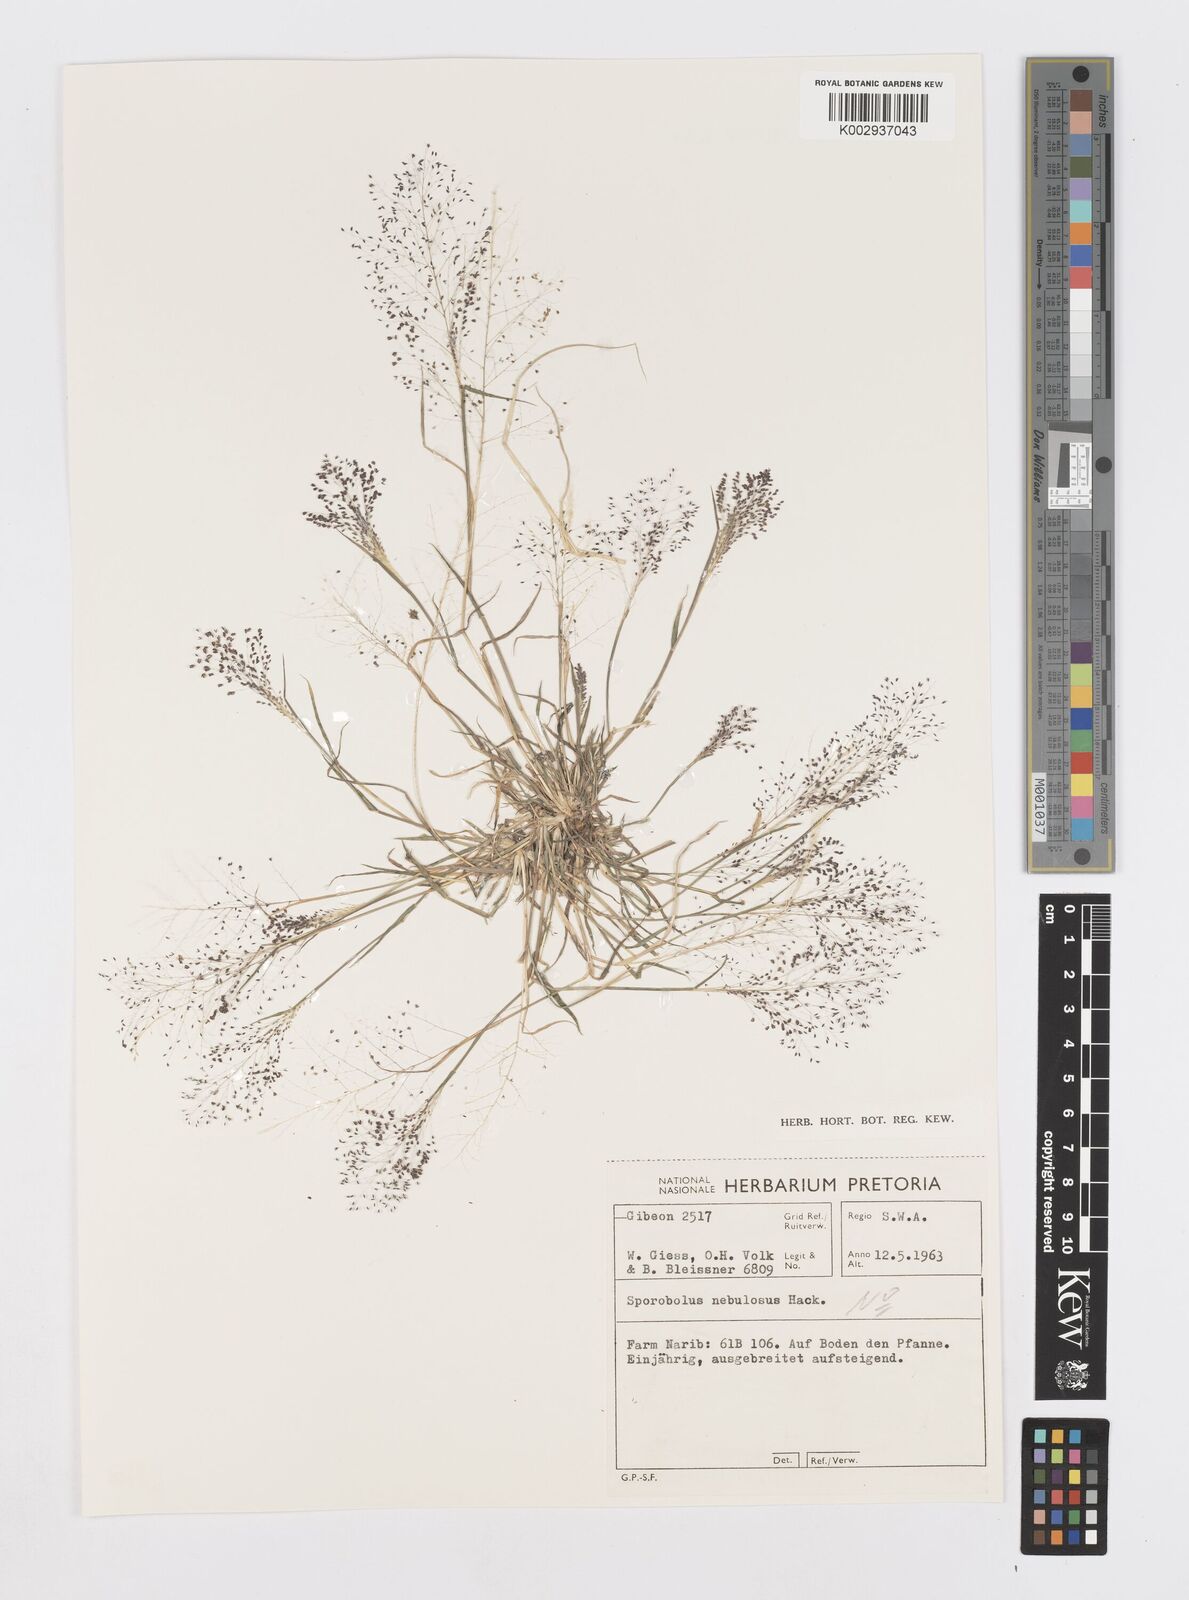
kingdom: Plantae
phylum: Tracheophyta
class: Liliopsida
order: Poales
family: Poaceae
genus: Sporobolus
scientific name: Sporobolus
